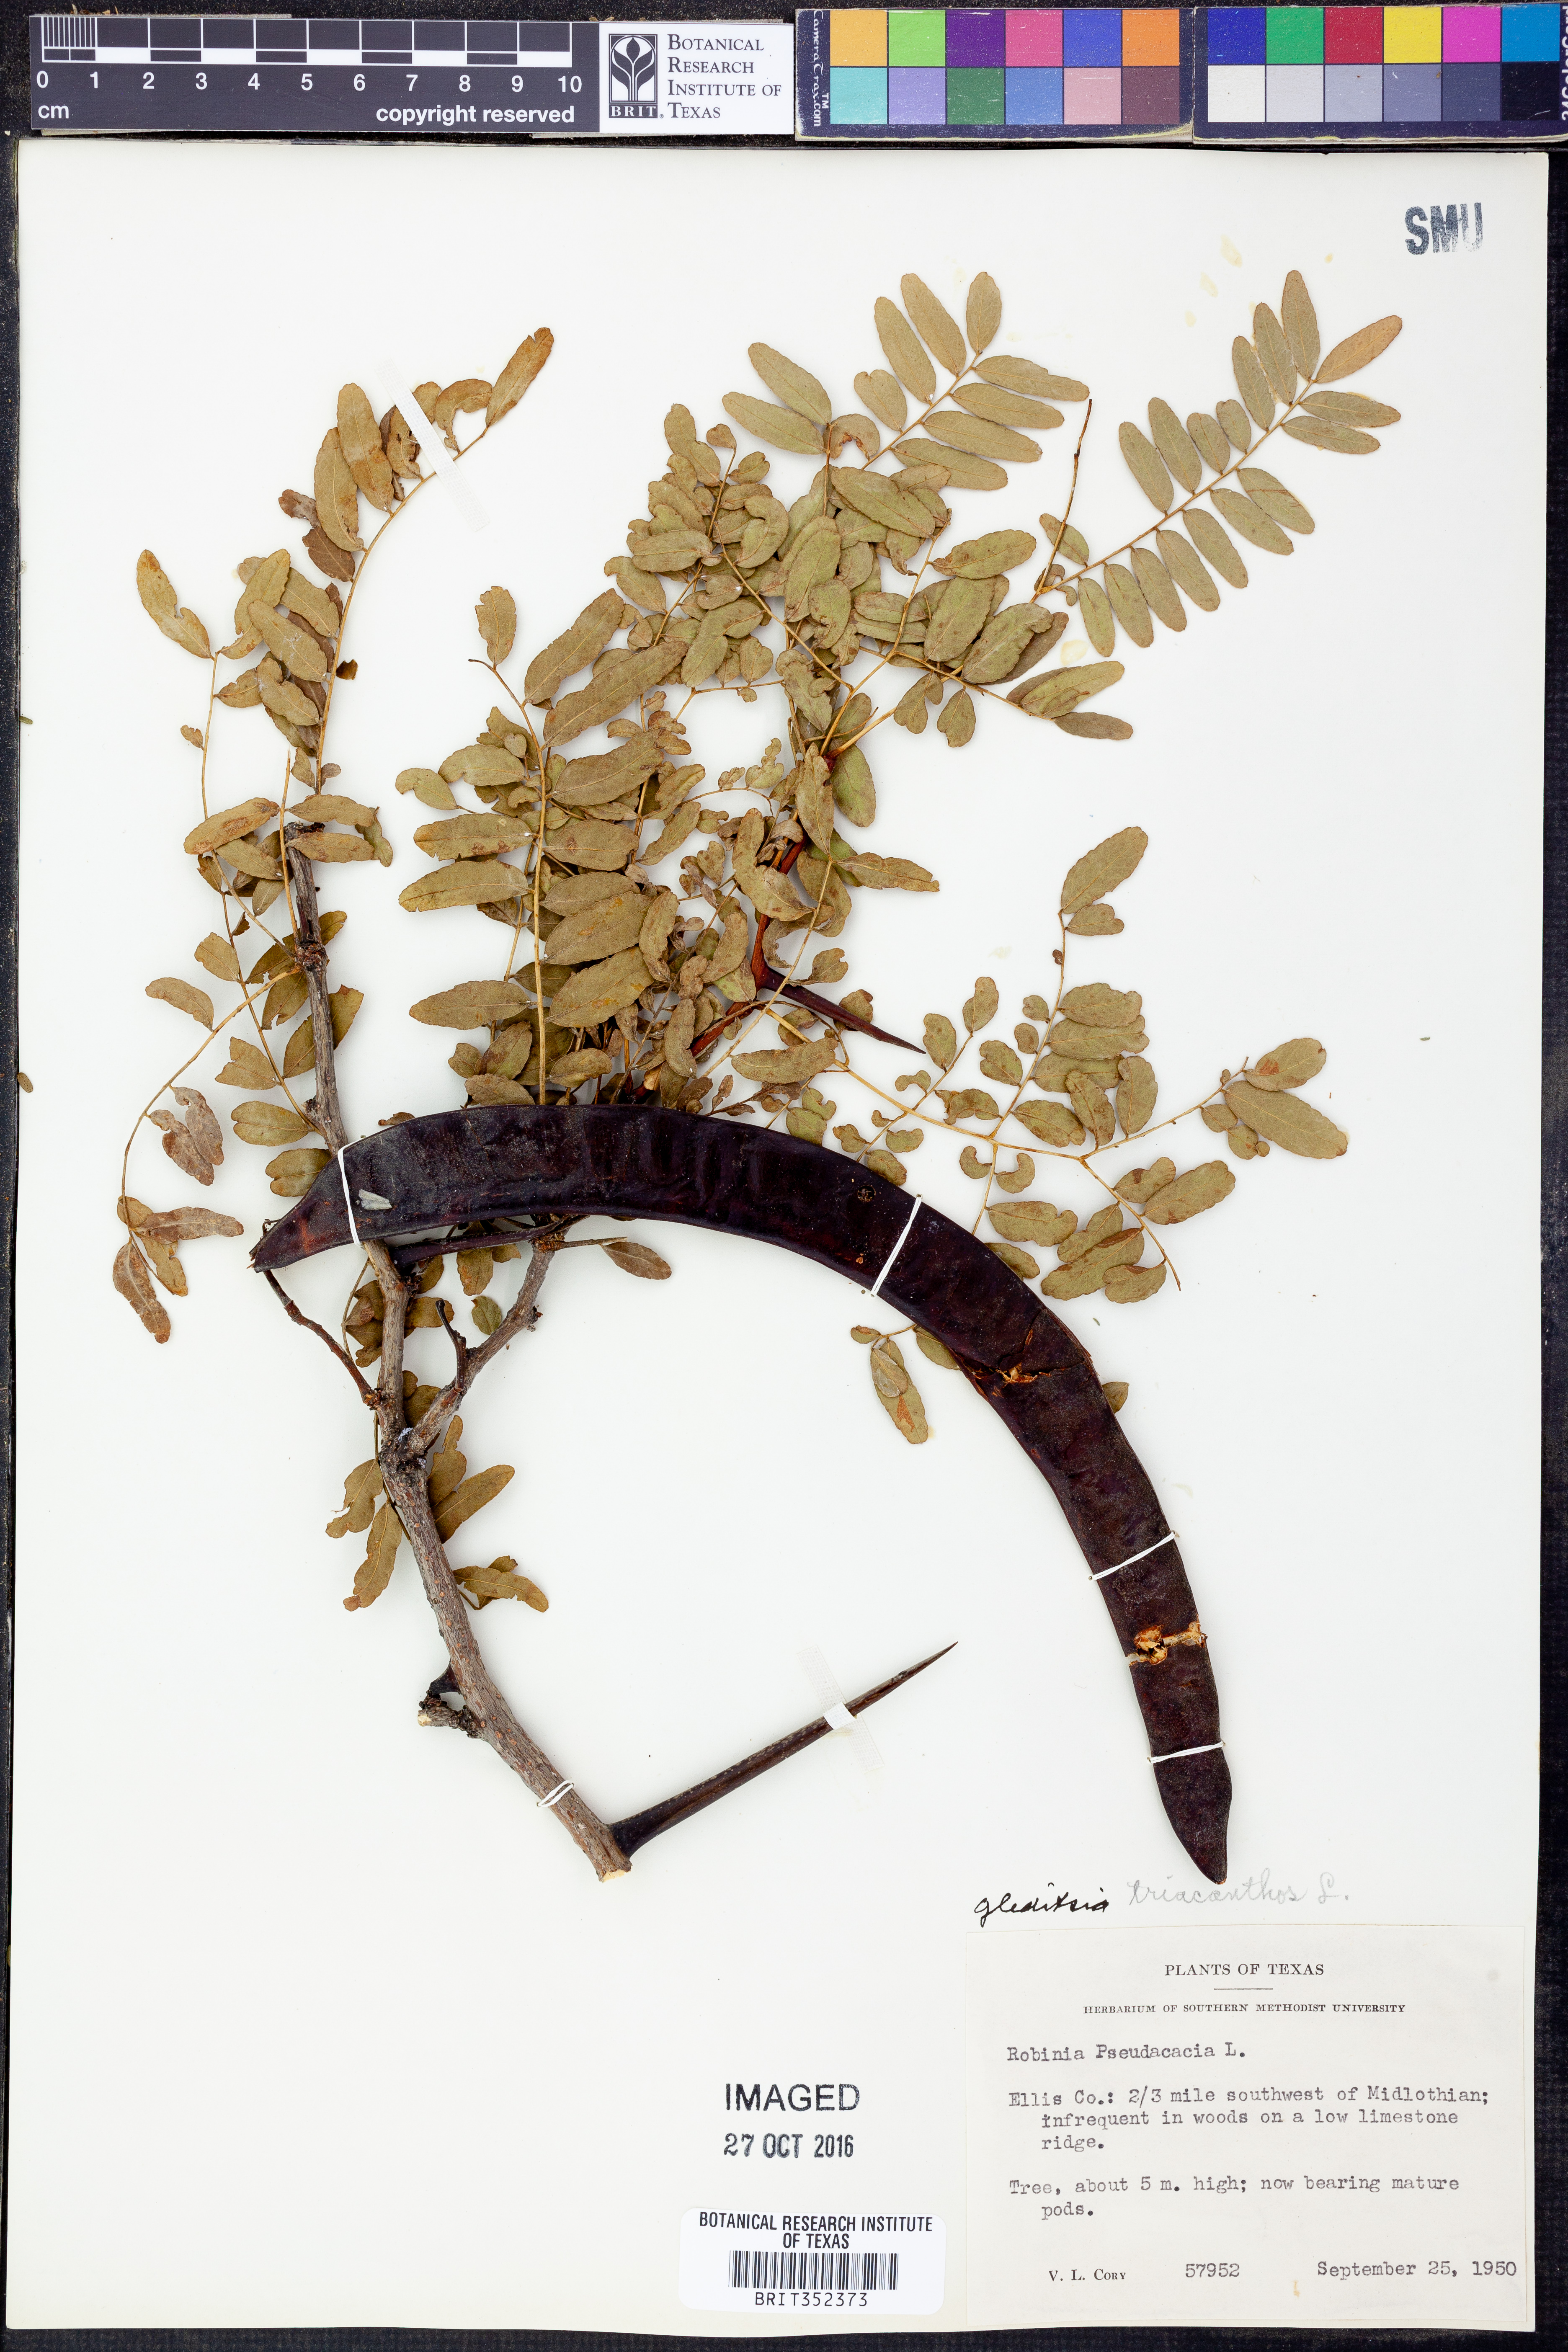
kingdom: Plantae
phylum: Tracheophyta
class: Magnoliopsida
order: Fabales
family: Fabaceae
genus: Gleditsia
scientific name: Gleditsia triacanthos
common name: Common honeylocust
